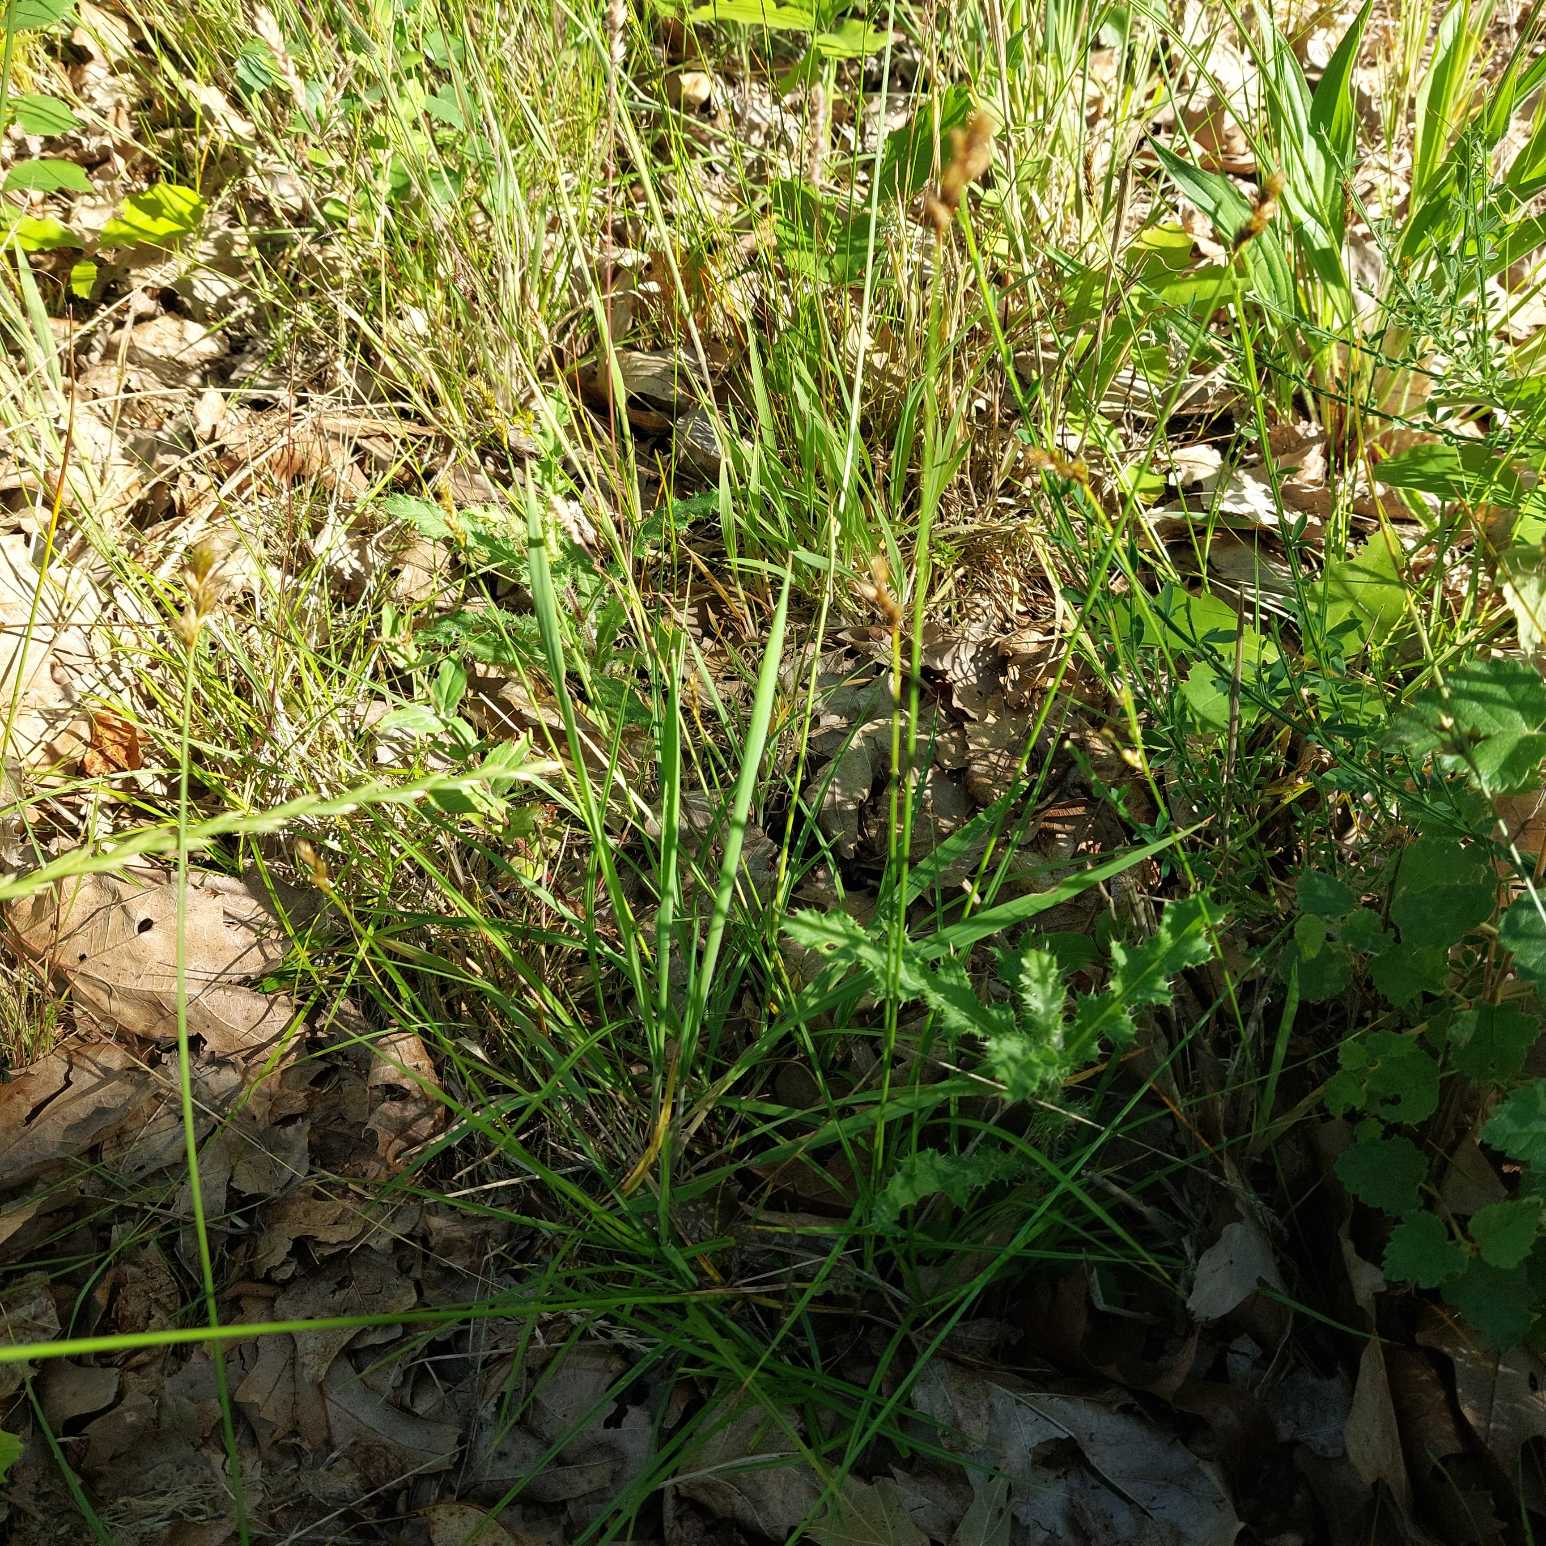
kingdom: Plantae
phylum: Tracheophyta
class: Liliopsida
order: Poales
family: Cyperaceae
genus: Carex
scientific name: Carex leporina
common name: Hare-star
